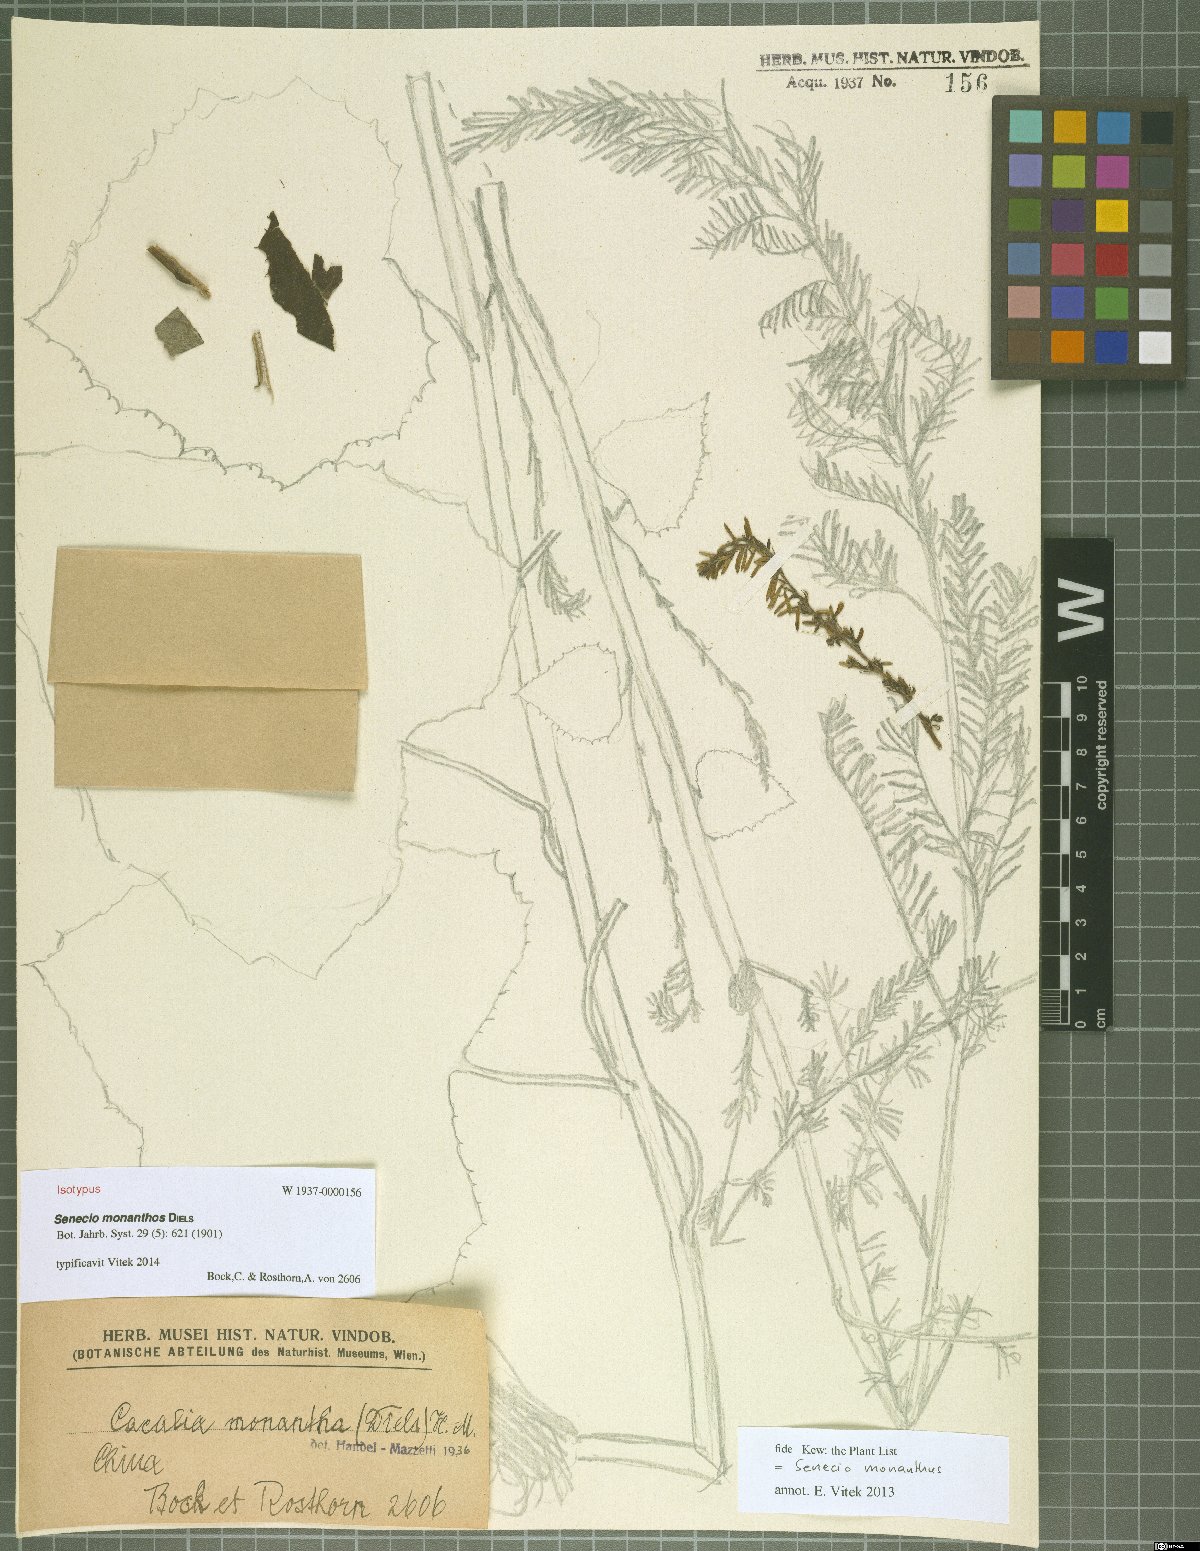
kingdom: Plantae
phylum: Tracheophyta
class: Magnoliopsida
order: Asterales
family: Asteraceae
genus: Parasenecio
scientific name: Parasenecio roborowskii
